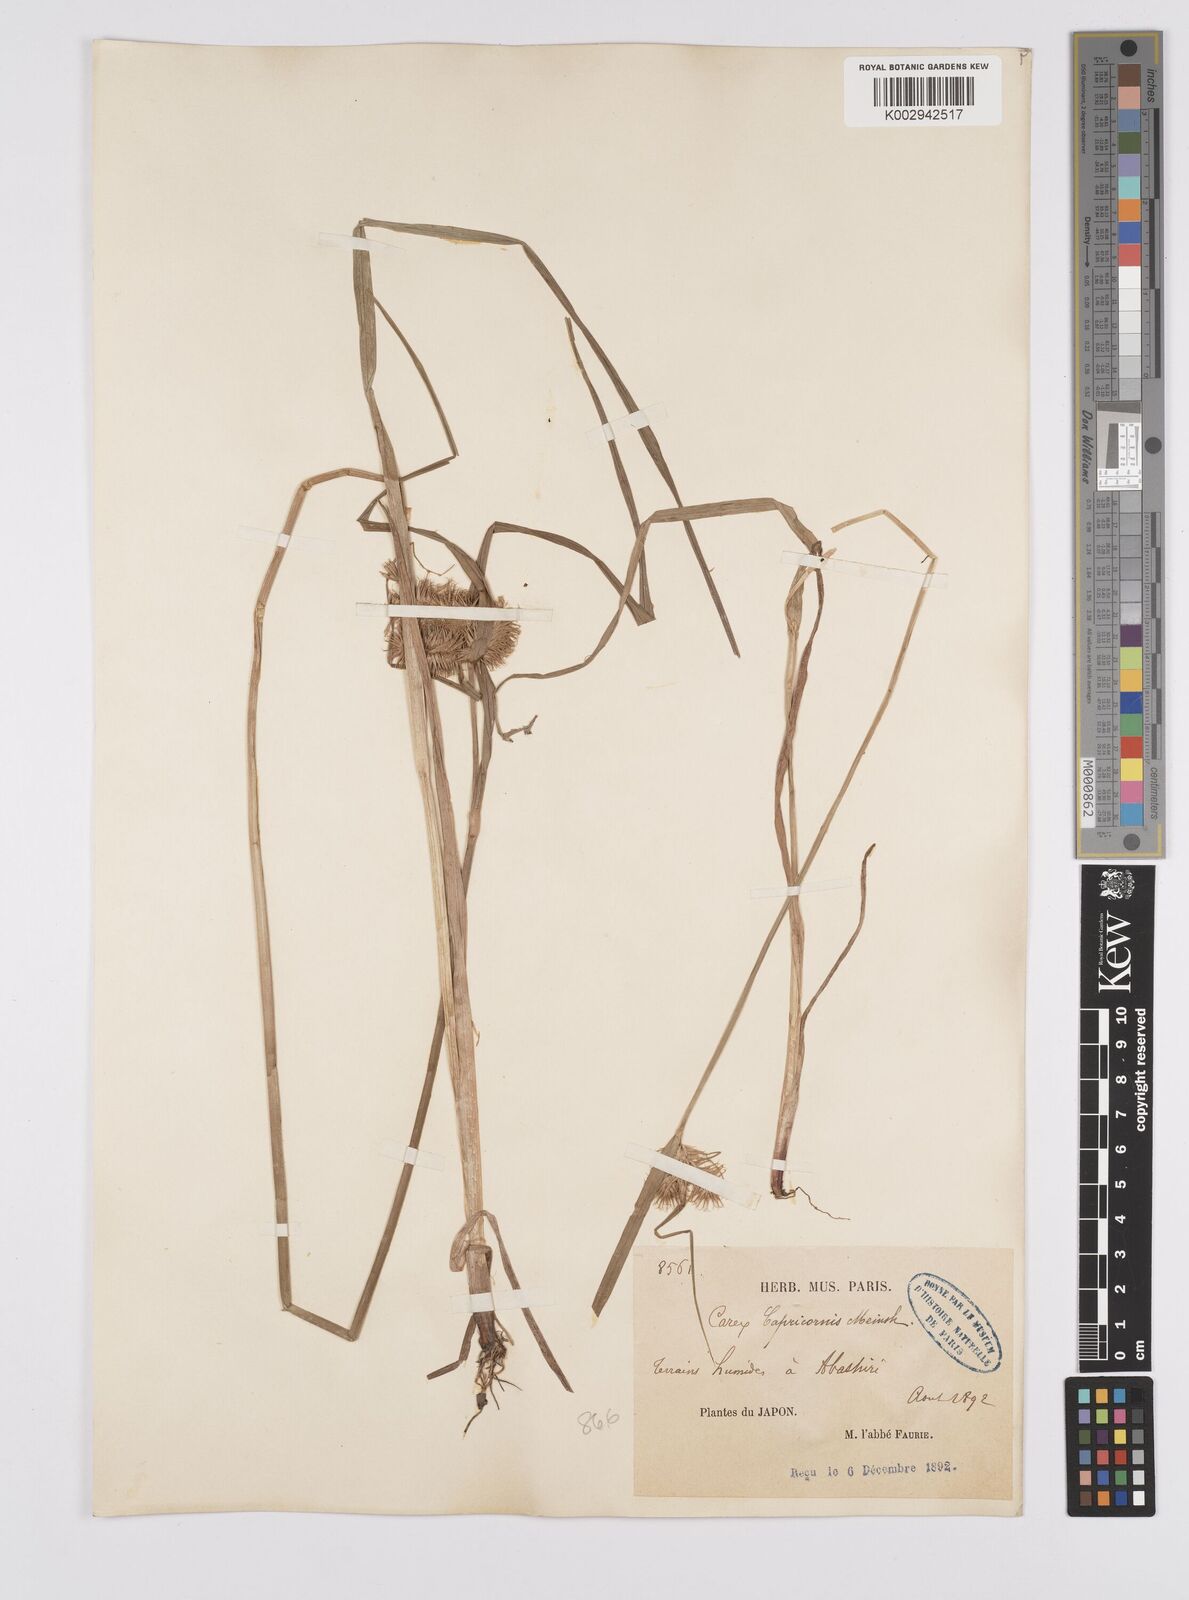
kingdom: Plantae
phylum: Tracheophyta
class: Liliopsida
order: Poales
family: Cyperaceae
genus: Carex
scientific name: Carex capricornis
